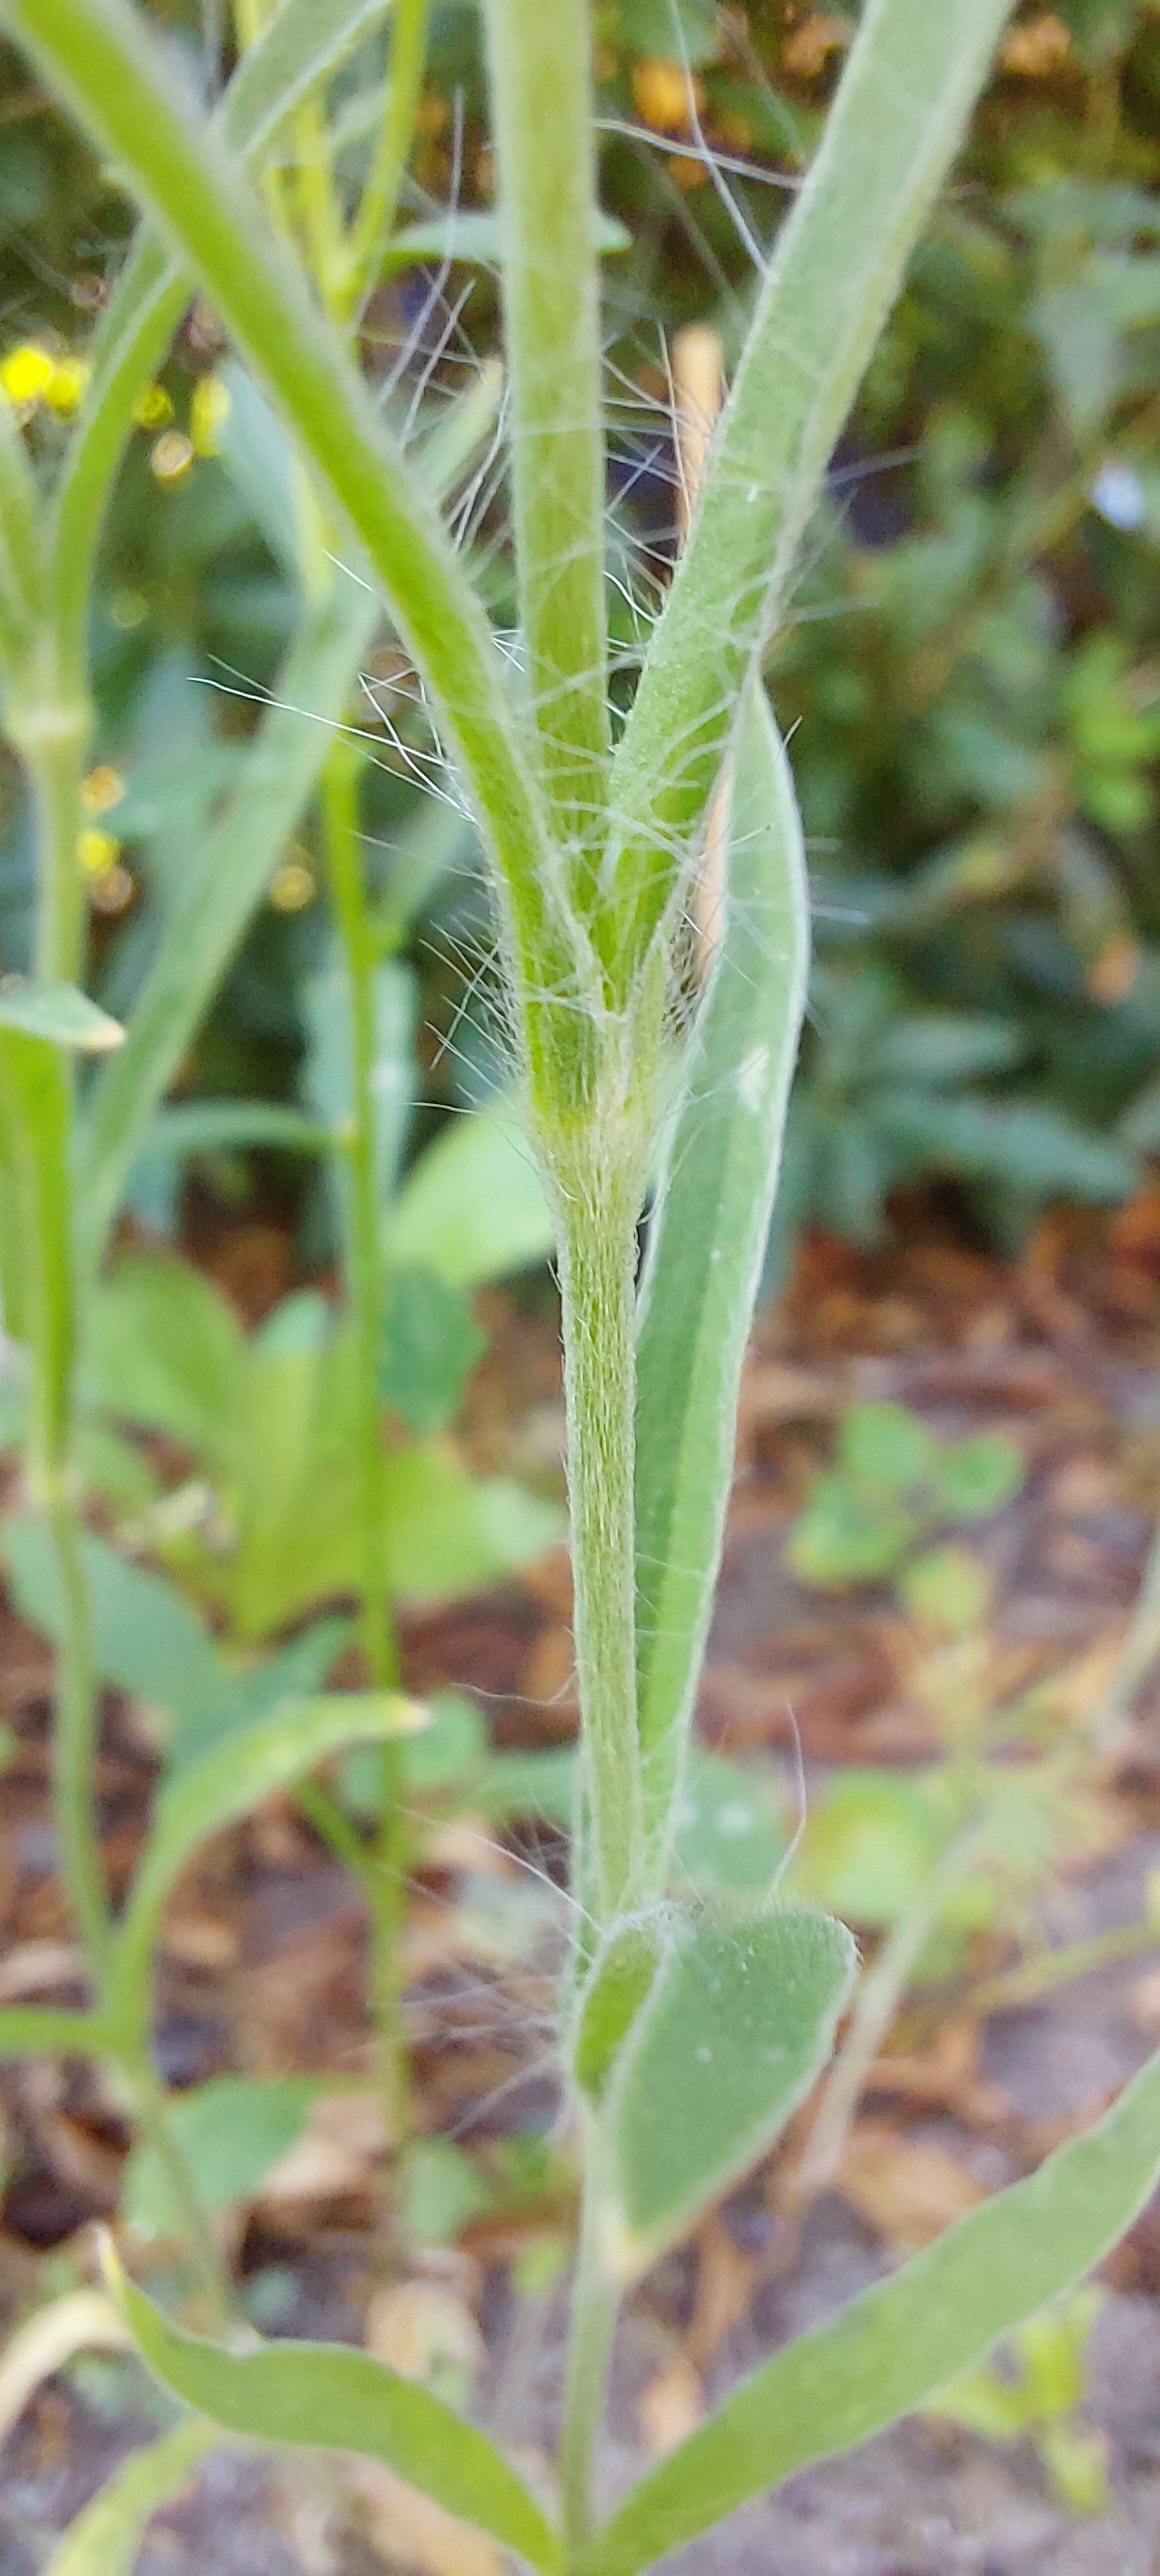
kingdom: Plantae
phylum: Tracheophyta
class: Magnoliopsida
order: Caryophyllales
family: Caryophyllaceae
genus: Agrostemma
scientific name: Agrostemma githago
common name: Klinte
